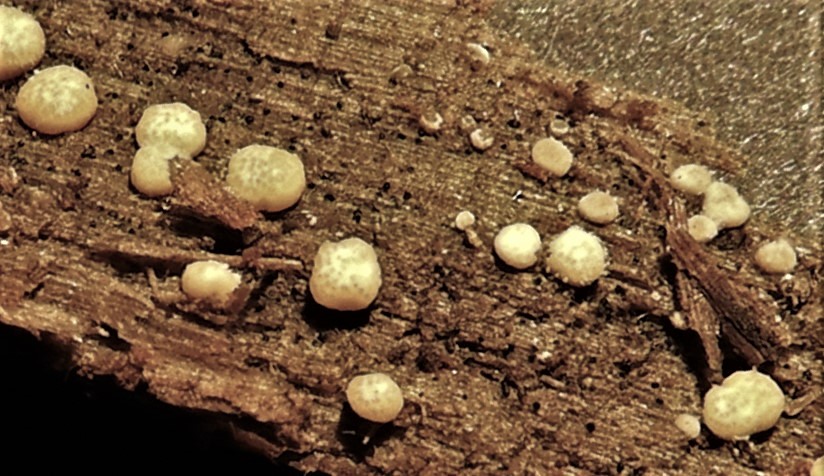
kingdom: Fungi
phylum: Ascomycota
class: Sordariomycetes
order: Hypocreales
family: Hypocreaceae
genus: Trichoderma
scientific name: Trichoderma
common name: kødkerne
